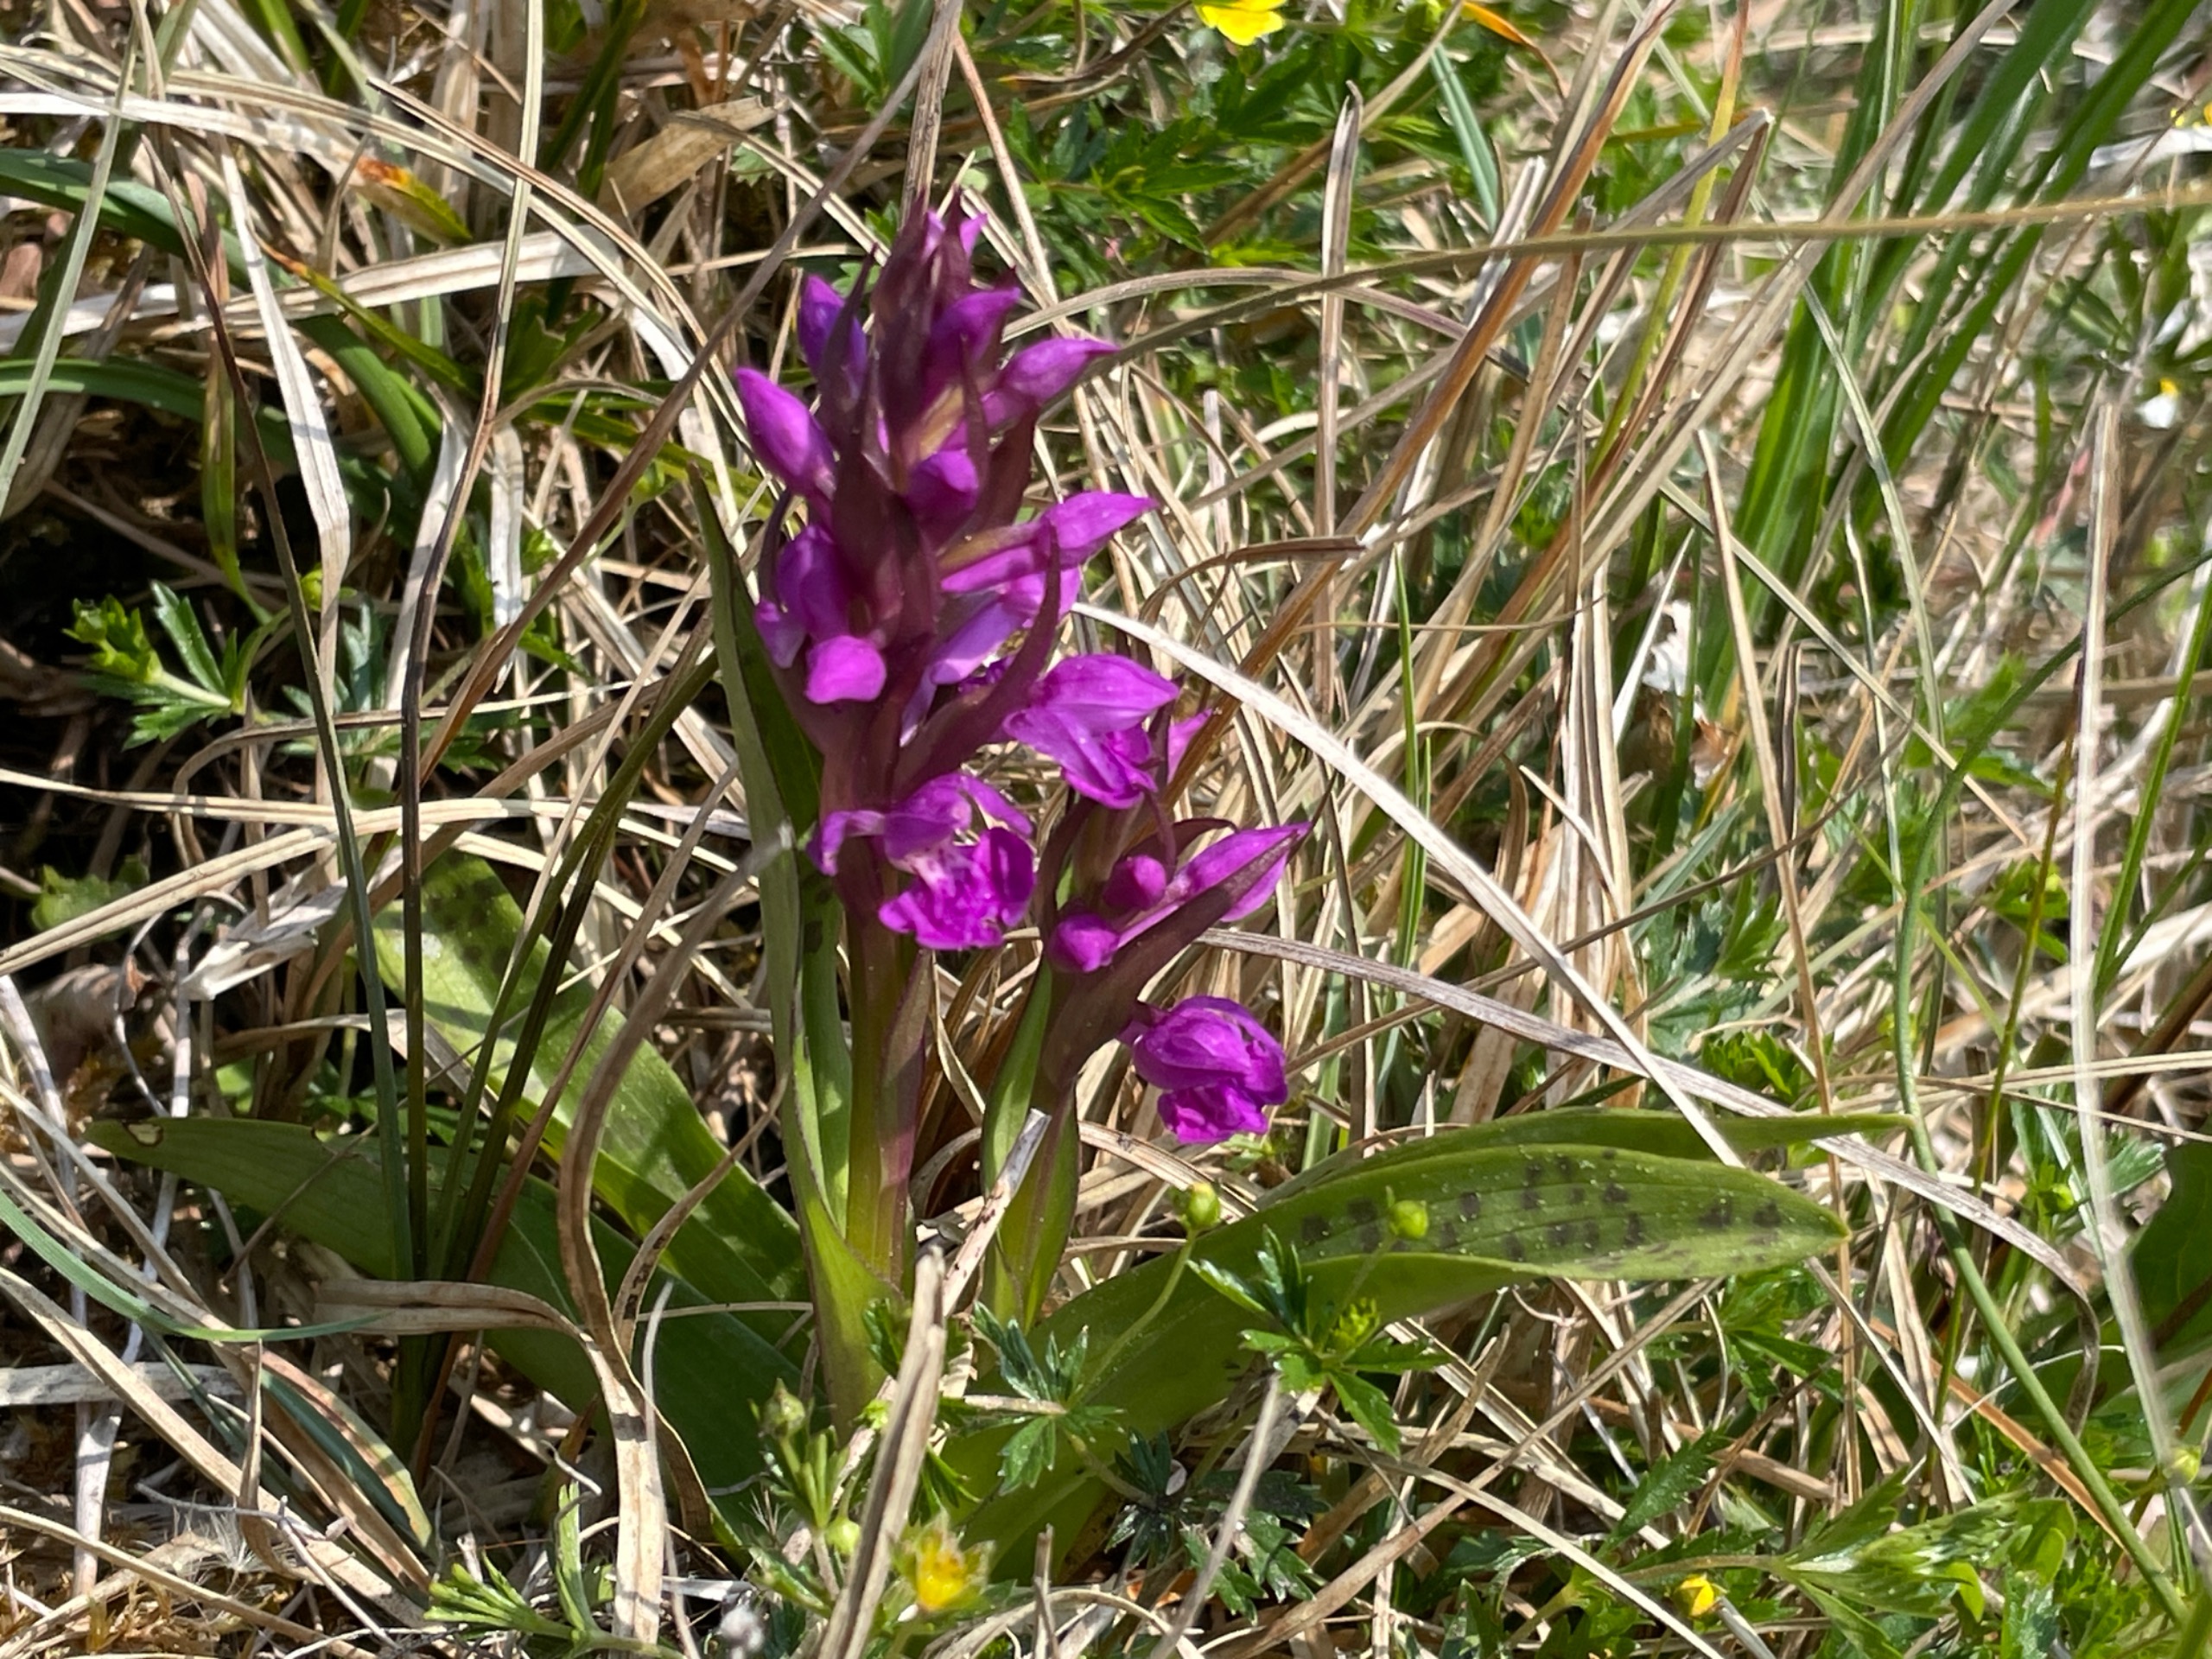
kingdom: Plantae
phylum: Tracheophyta
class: Liliopsida
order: Asparagales
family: Orchidaceae
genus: Dactylorhiza
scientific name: Dactylorhiza majalis
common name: Maj-gøgeurt
